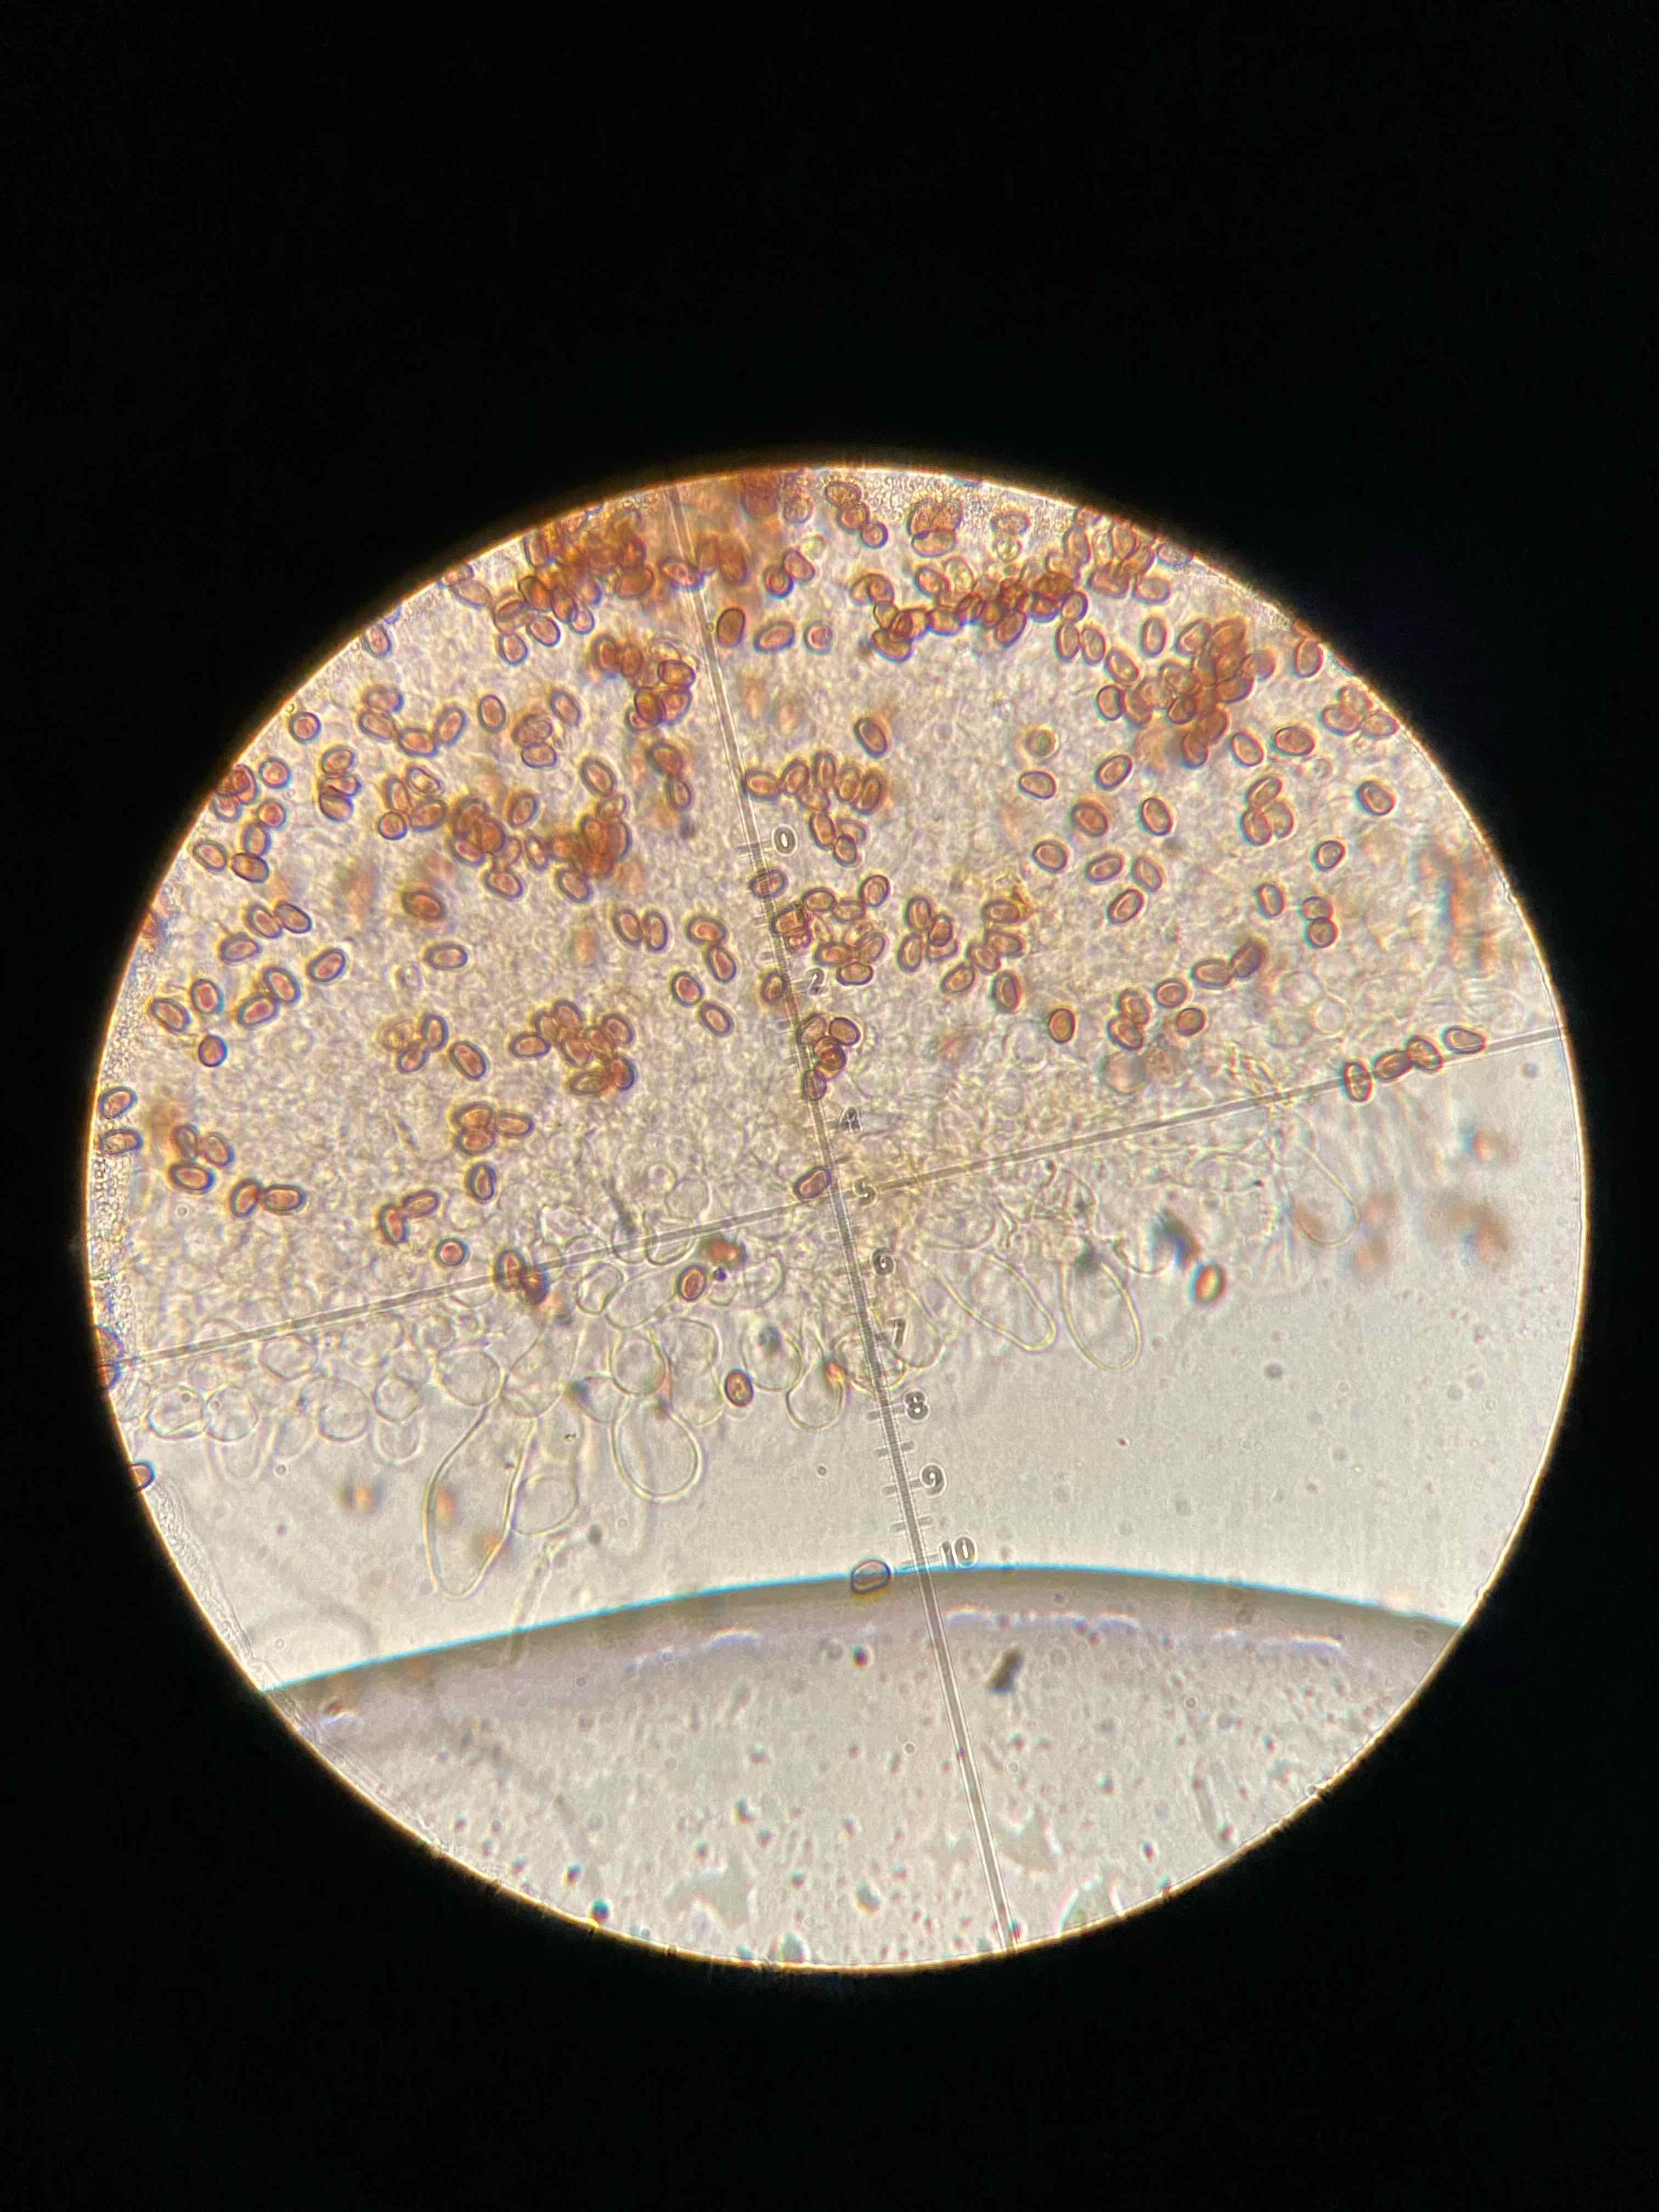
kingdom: Fungi
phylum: Basidiomycota
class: Agaricomycetes
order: Agaricales
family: Psathyrellaceae
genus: Psathyrella
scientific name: Psathyrella piluliformis
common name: lysstokket mørkhat
